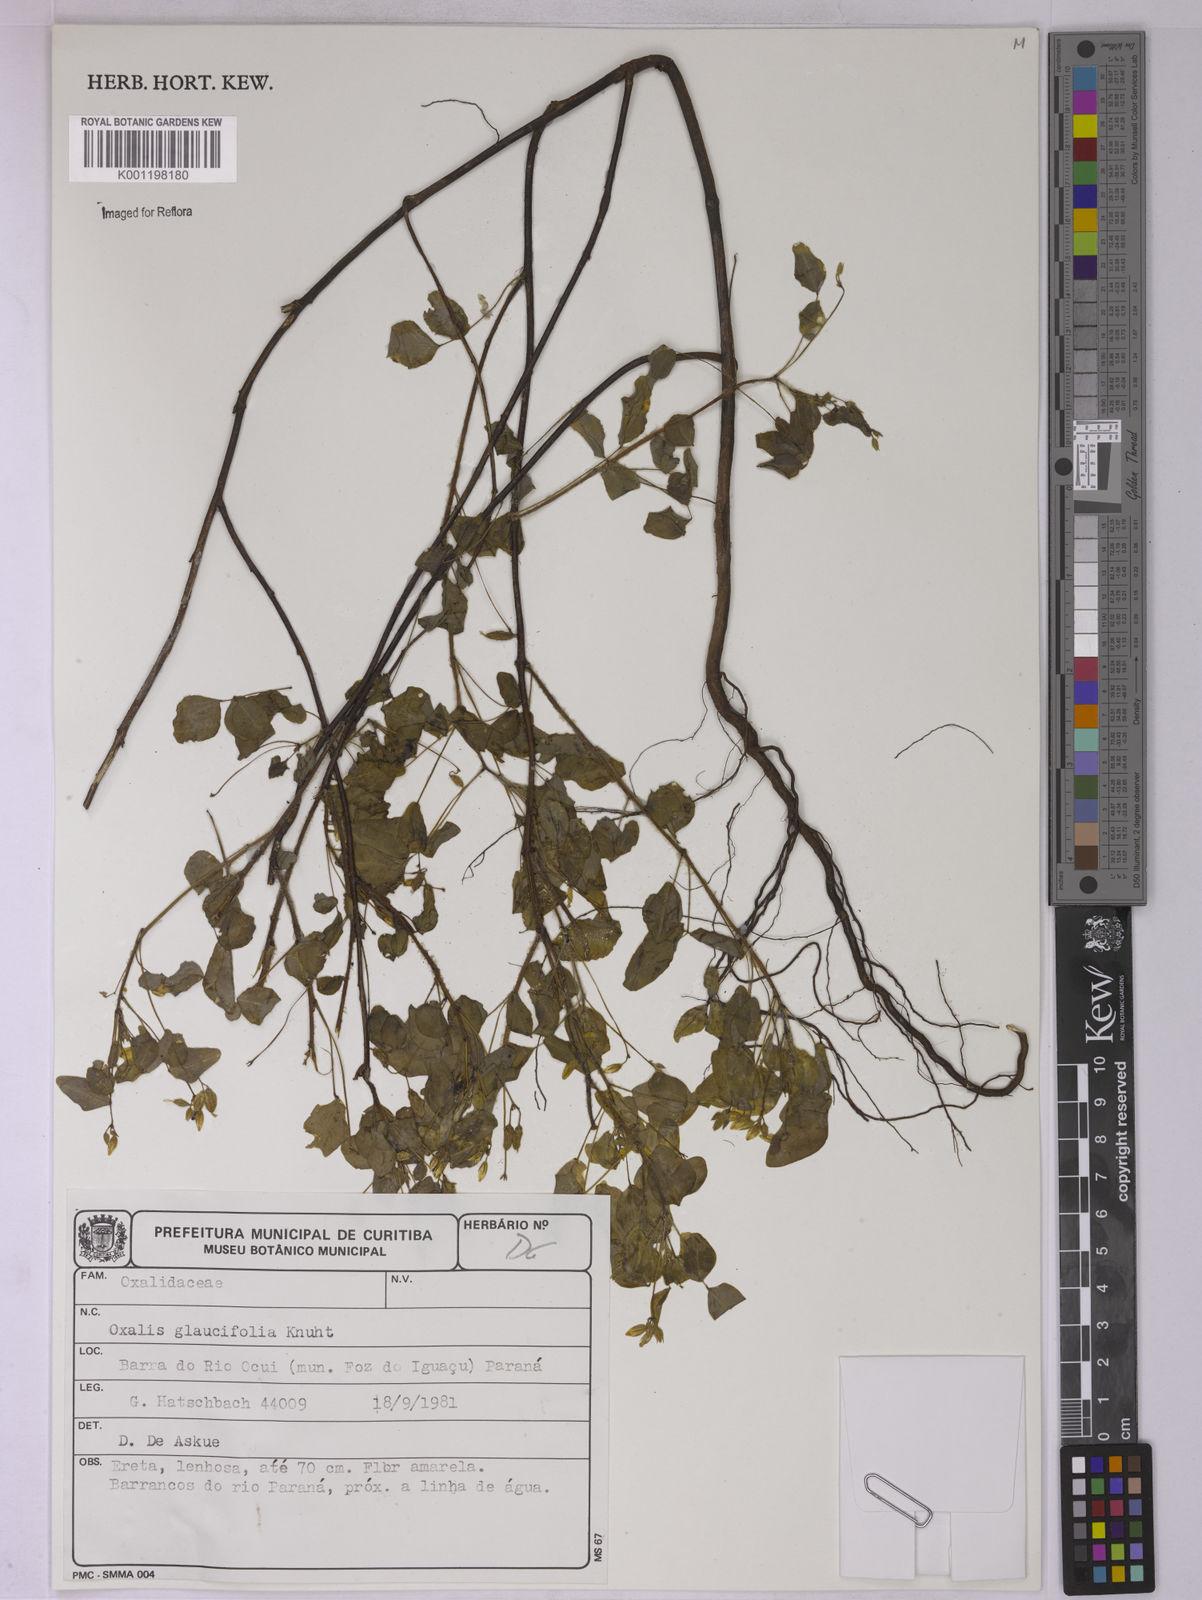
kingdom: Plantae
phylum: Tracheophyta
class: Magnoliopsida
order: Oxalidales
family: Oxalidaceae
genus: Oxalis
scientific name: Oxalis
